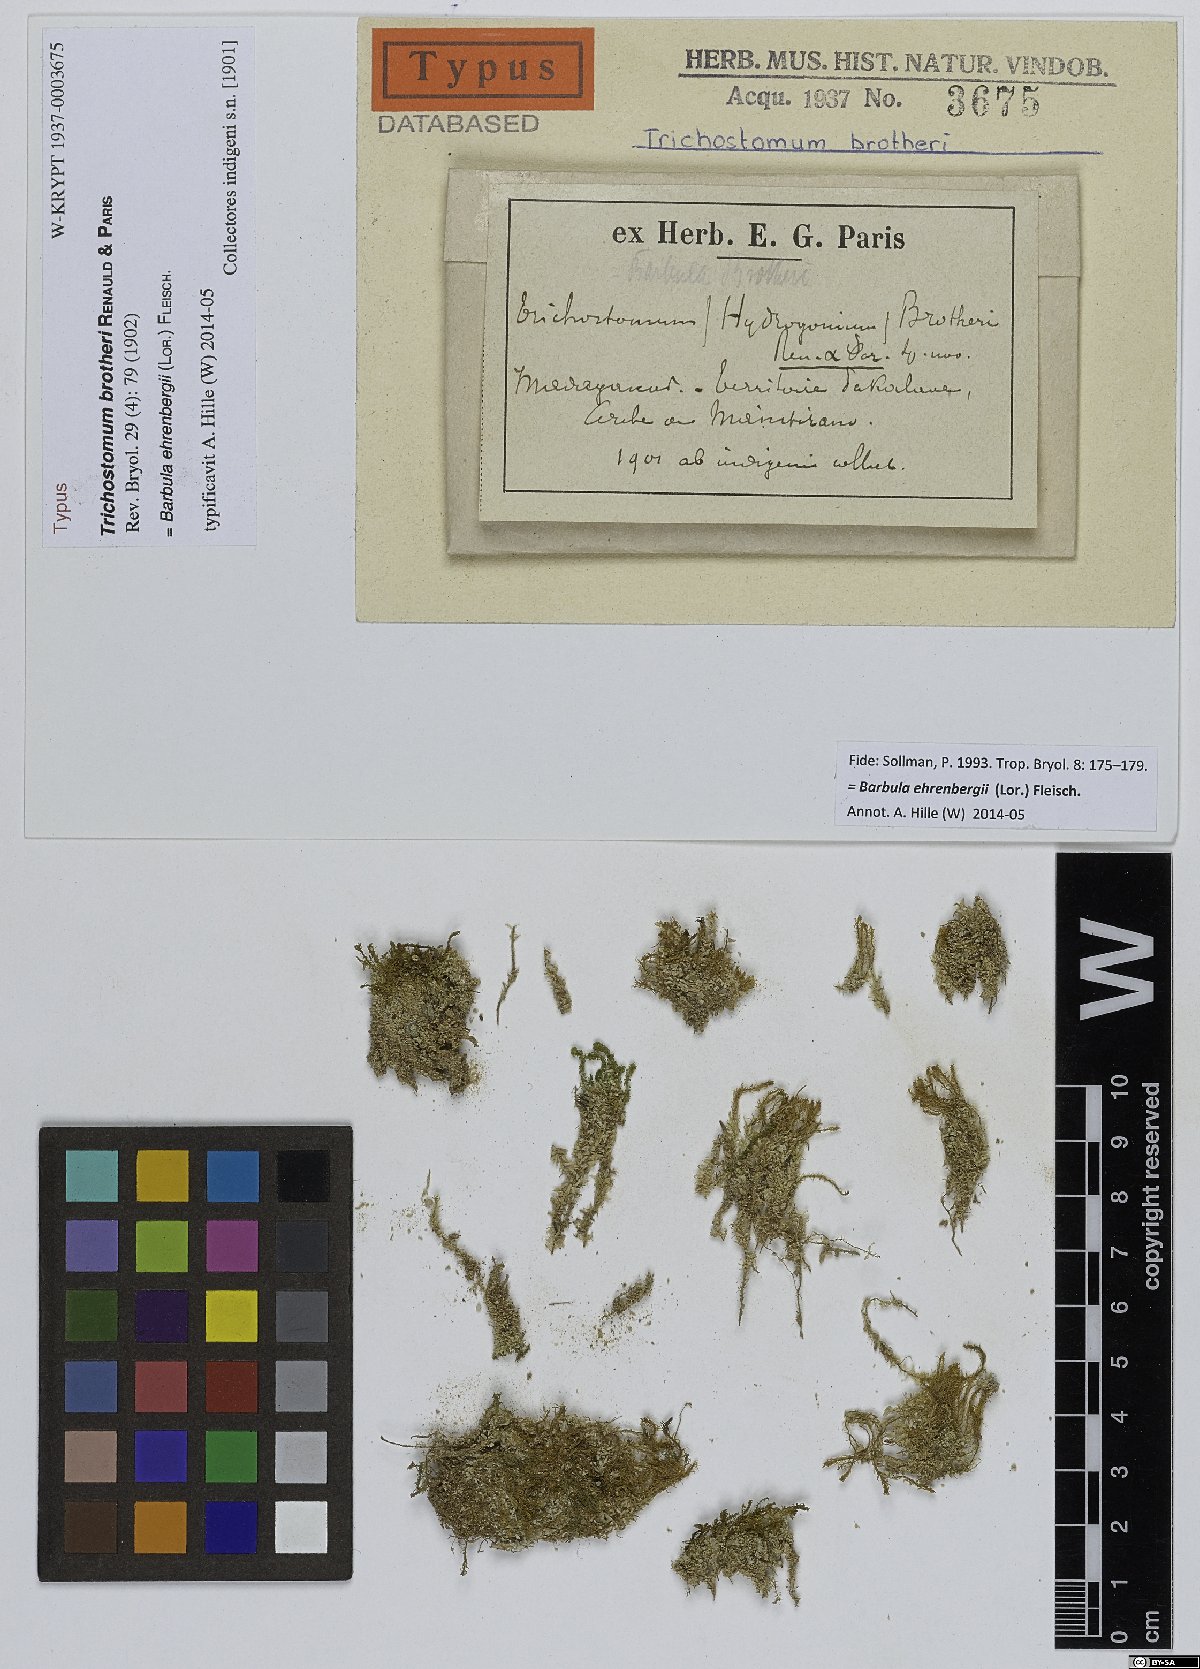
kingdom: Plantae
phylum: Bryophyta
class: Bryopsida
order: Pottiales
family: Pottiaceae
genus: Hydrogonium
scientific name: Hydrogonium bolleanum
